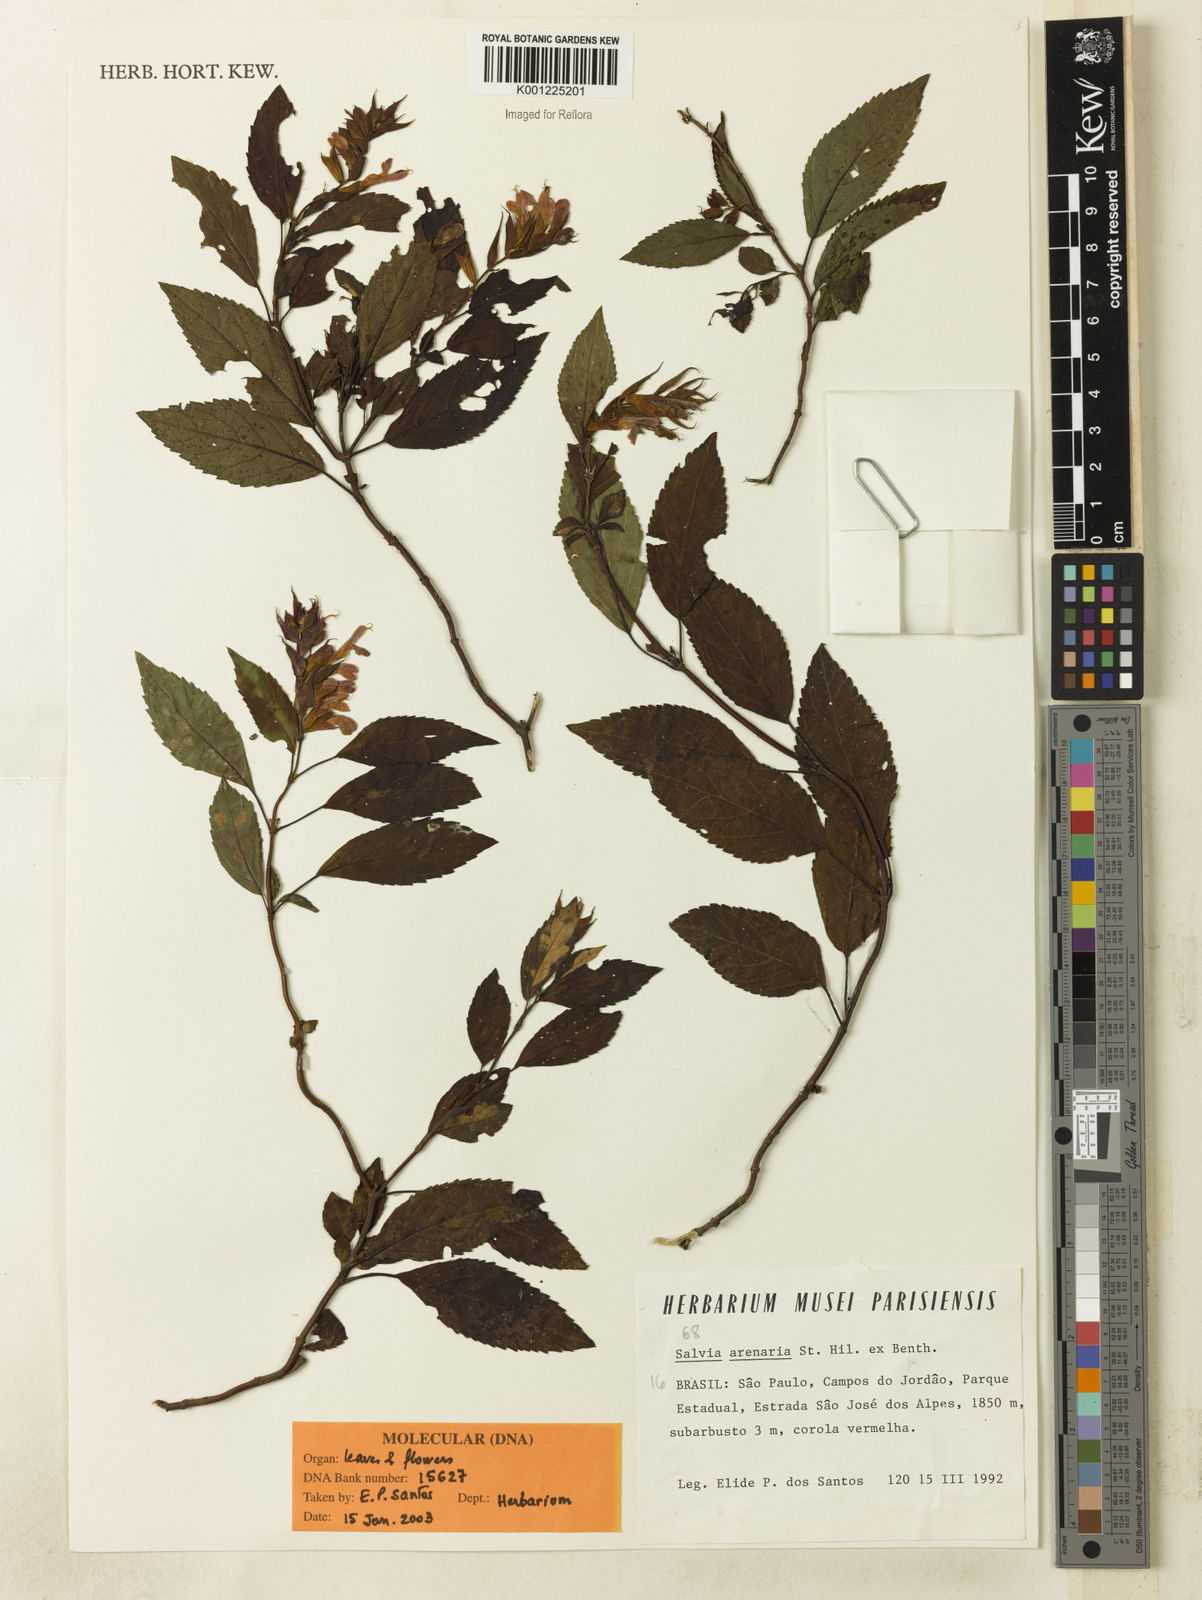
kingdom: Plantae
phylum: Tracheophyta
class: Magnoliopsida
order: Lamiales
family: Lamiaceae
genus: Salvia
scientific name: Salvia arenaria
